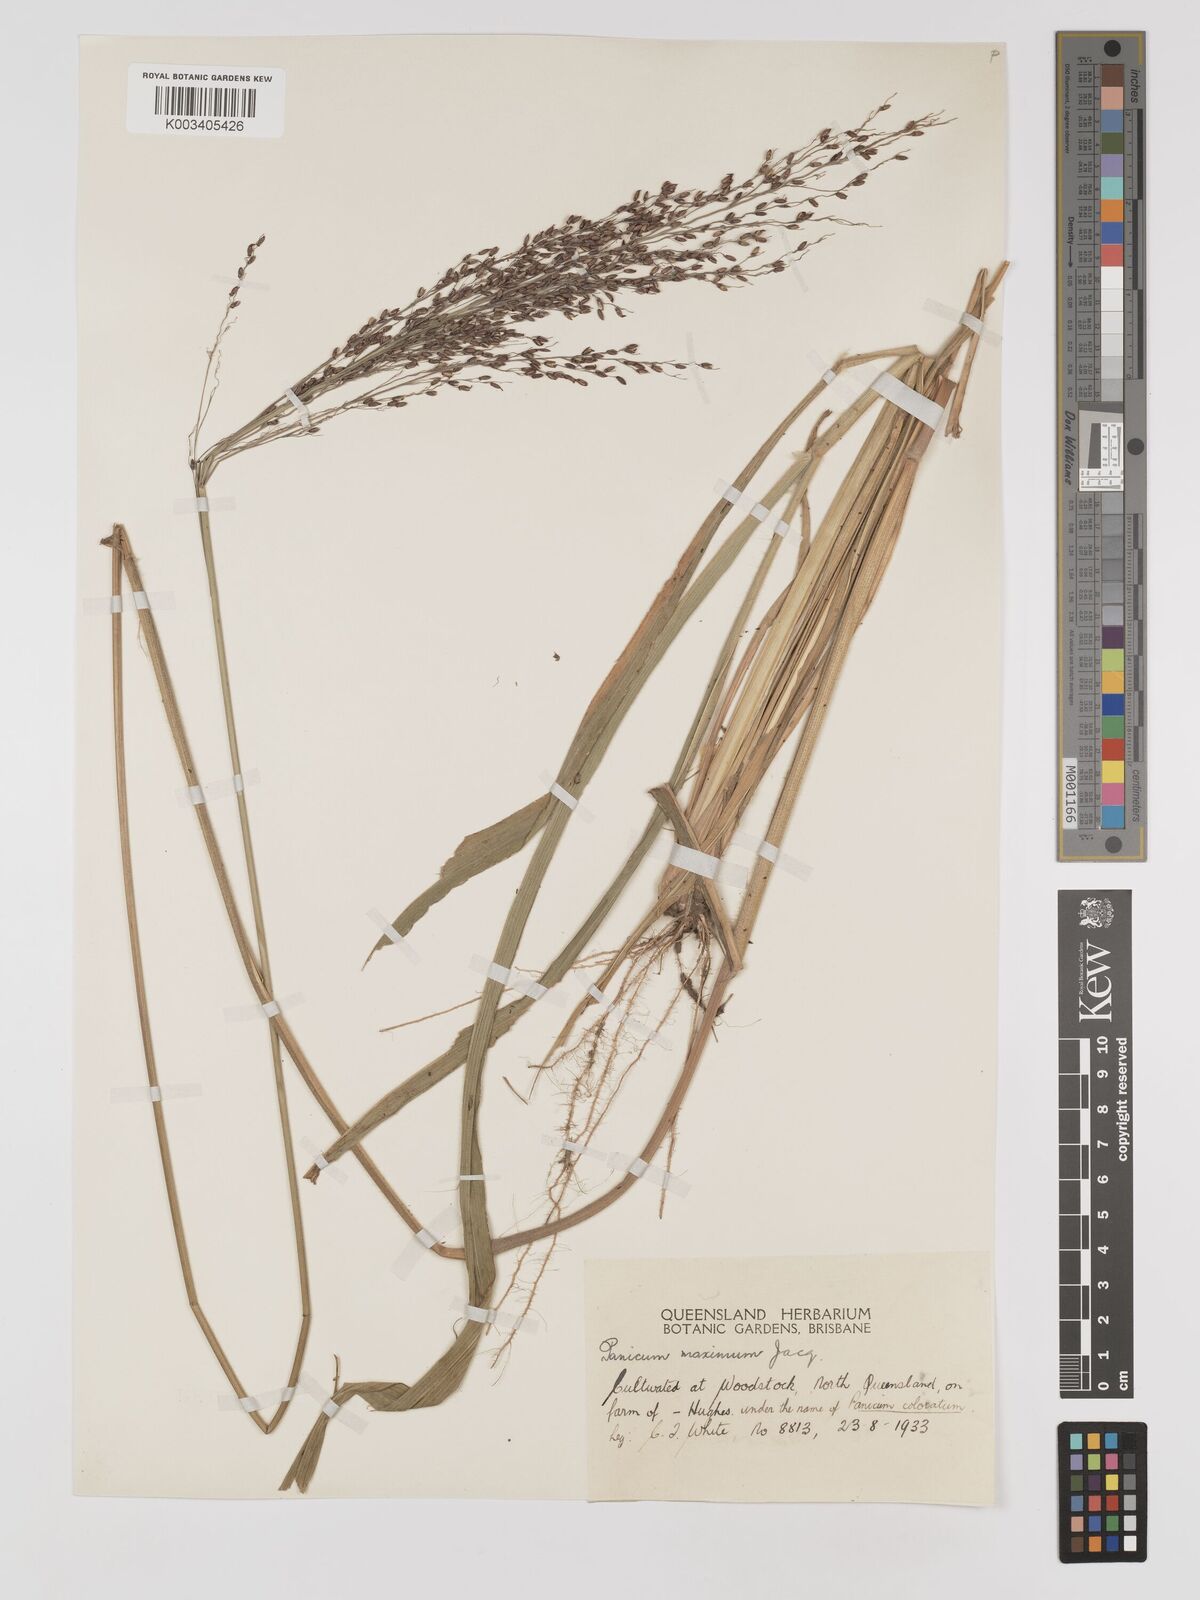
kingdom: Plantae
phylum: Tracheophyta
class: Liliopsida
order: Poales
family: Poaceae
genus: Megathyrsus
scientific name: Megathyrsus maximus
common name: Guineagrass
